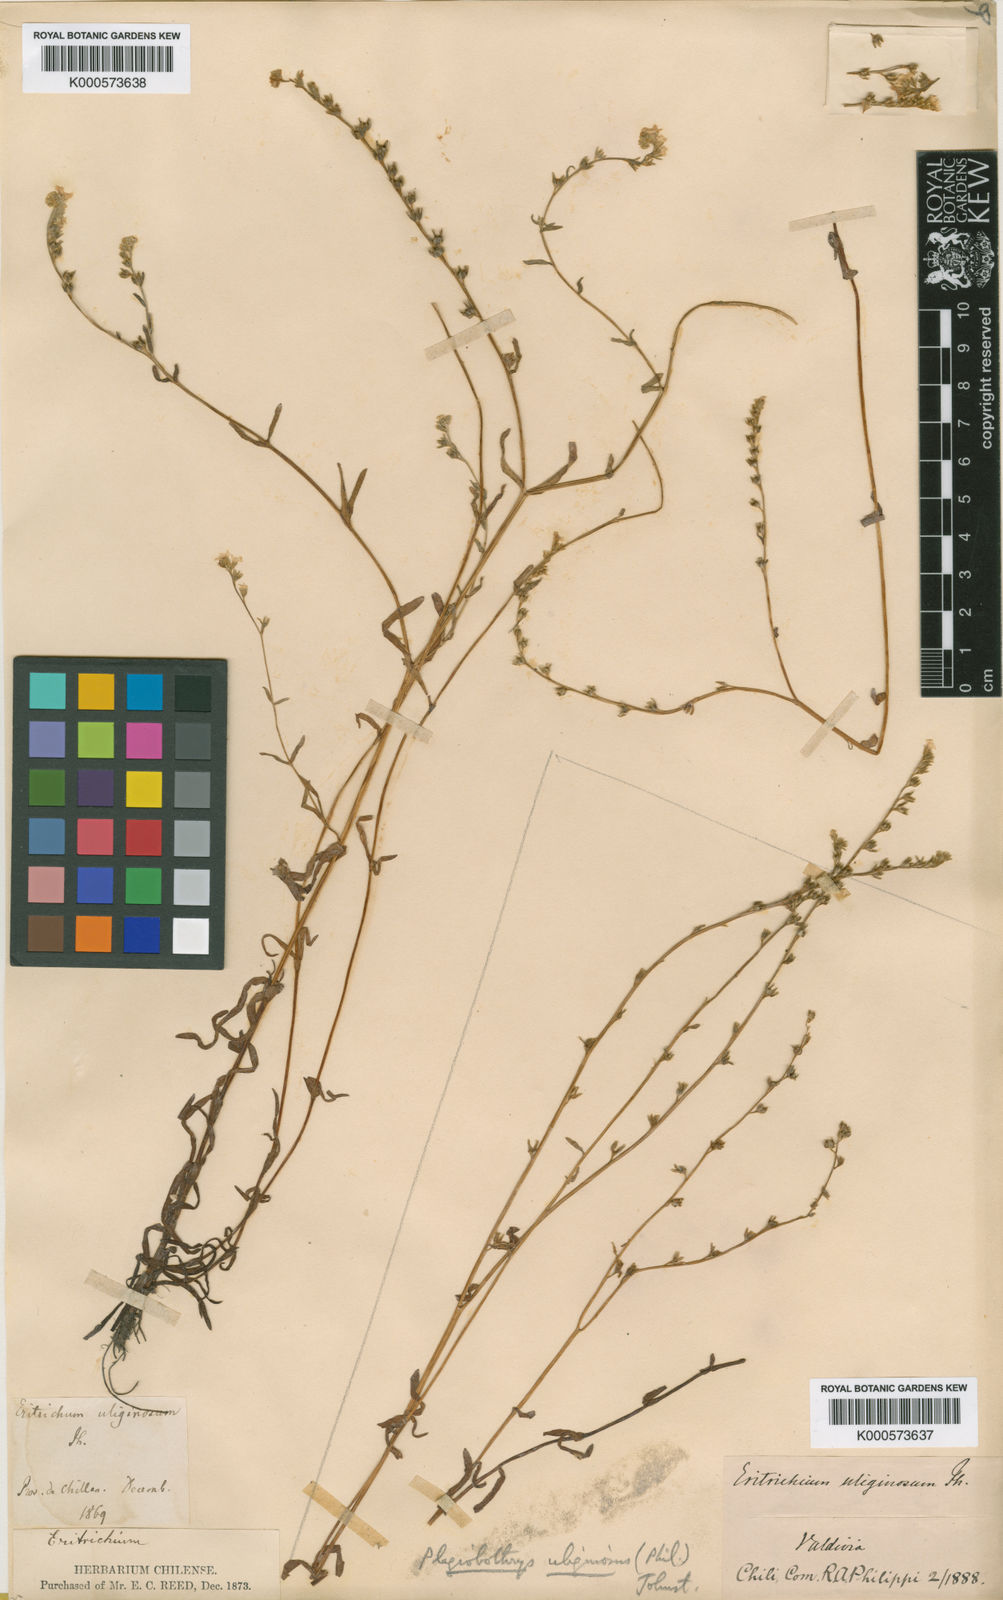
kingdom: Plantae
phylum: Tracheophyta
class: Magnoliopsida
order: Boraginales
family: Boraginaceae
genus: Plagiobothrys
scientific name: Plagiobothrys uliginosus
